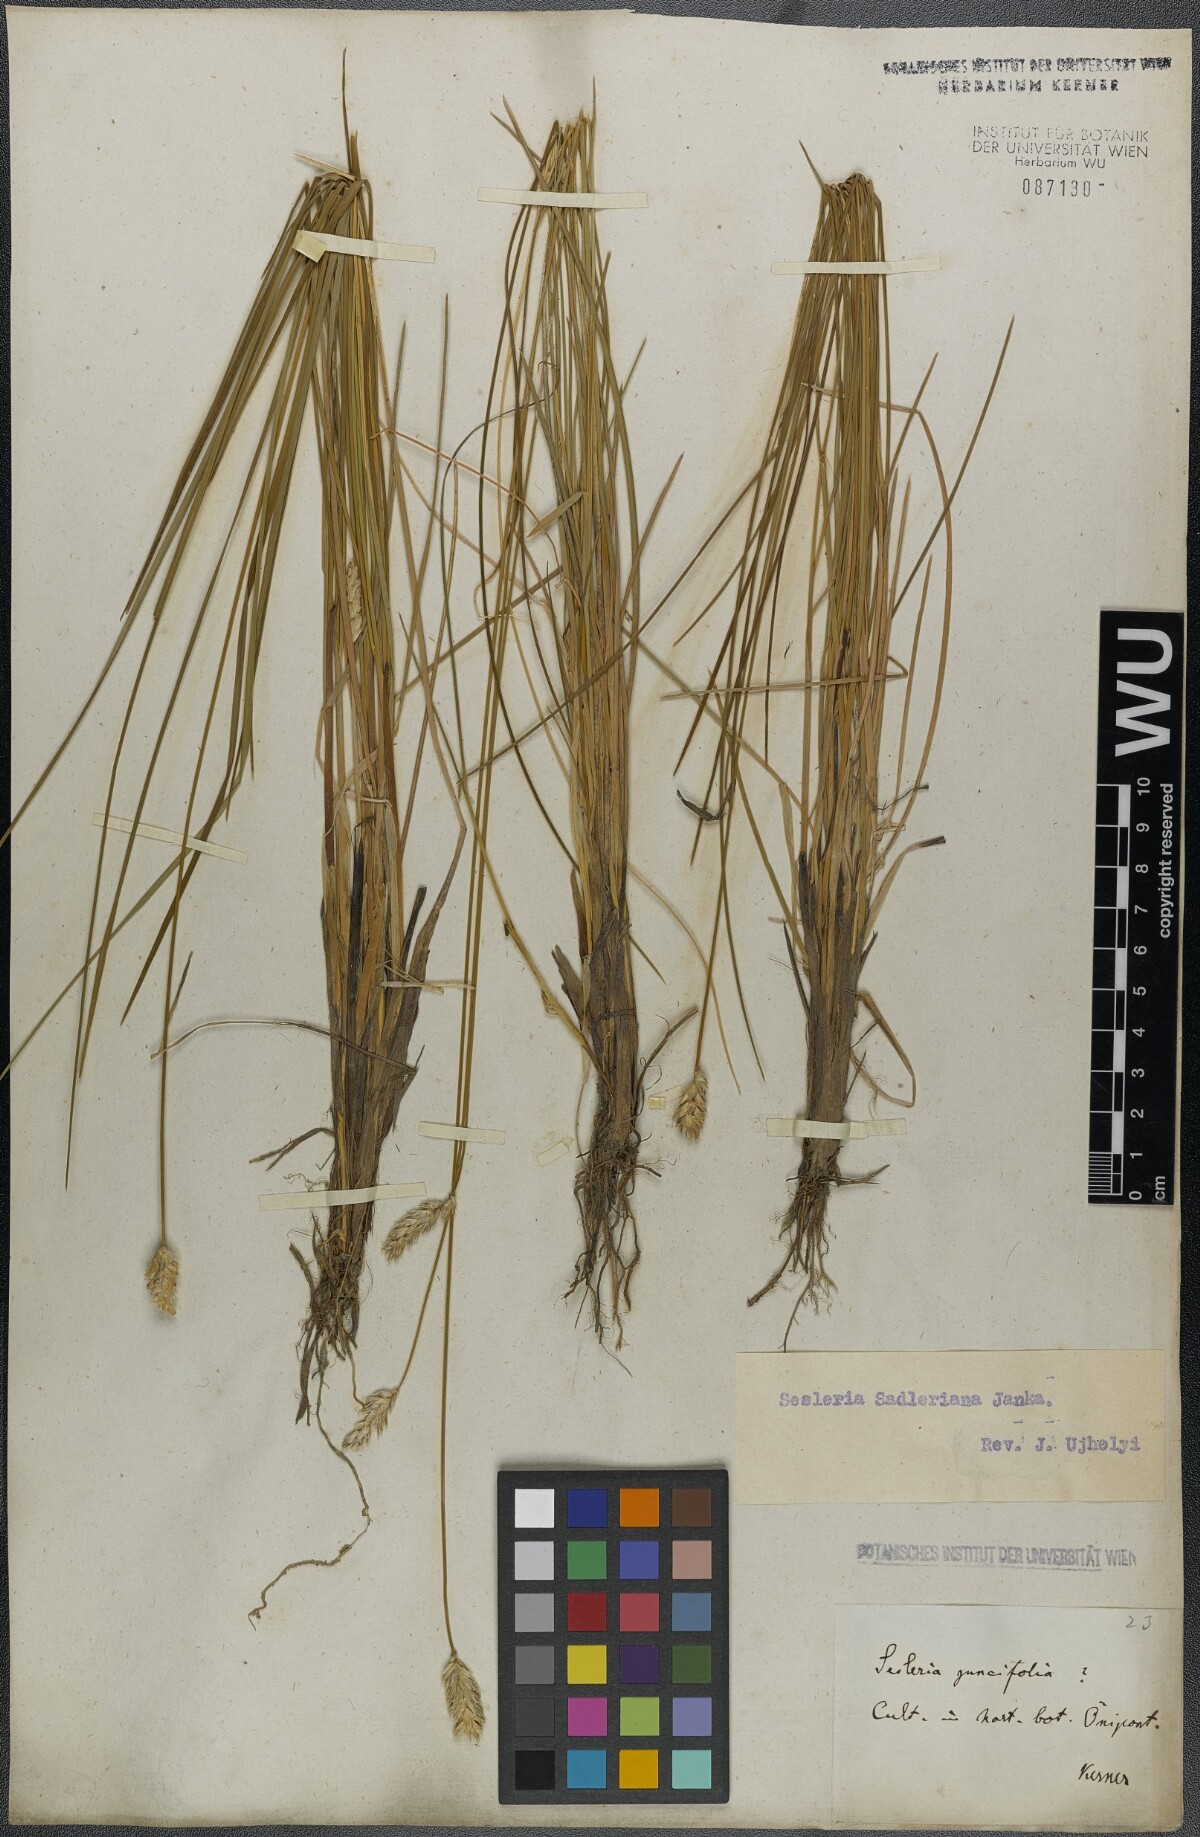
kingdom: Plantae
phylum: Tracheophyta
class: Liliopsida
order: Poales
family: Poaceae
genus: Sesleria
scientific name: Sesleria sadleriana
